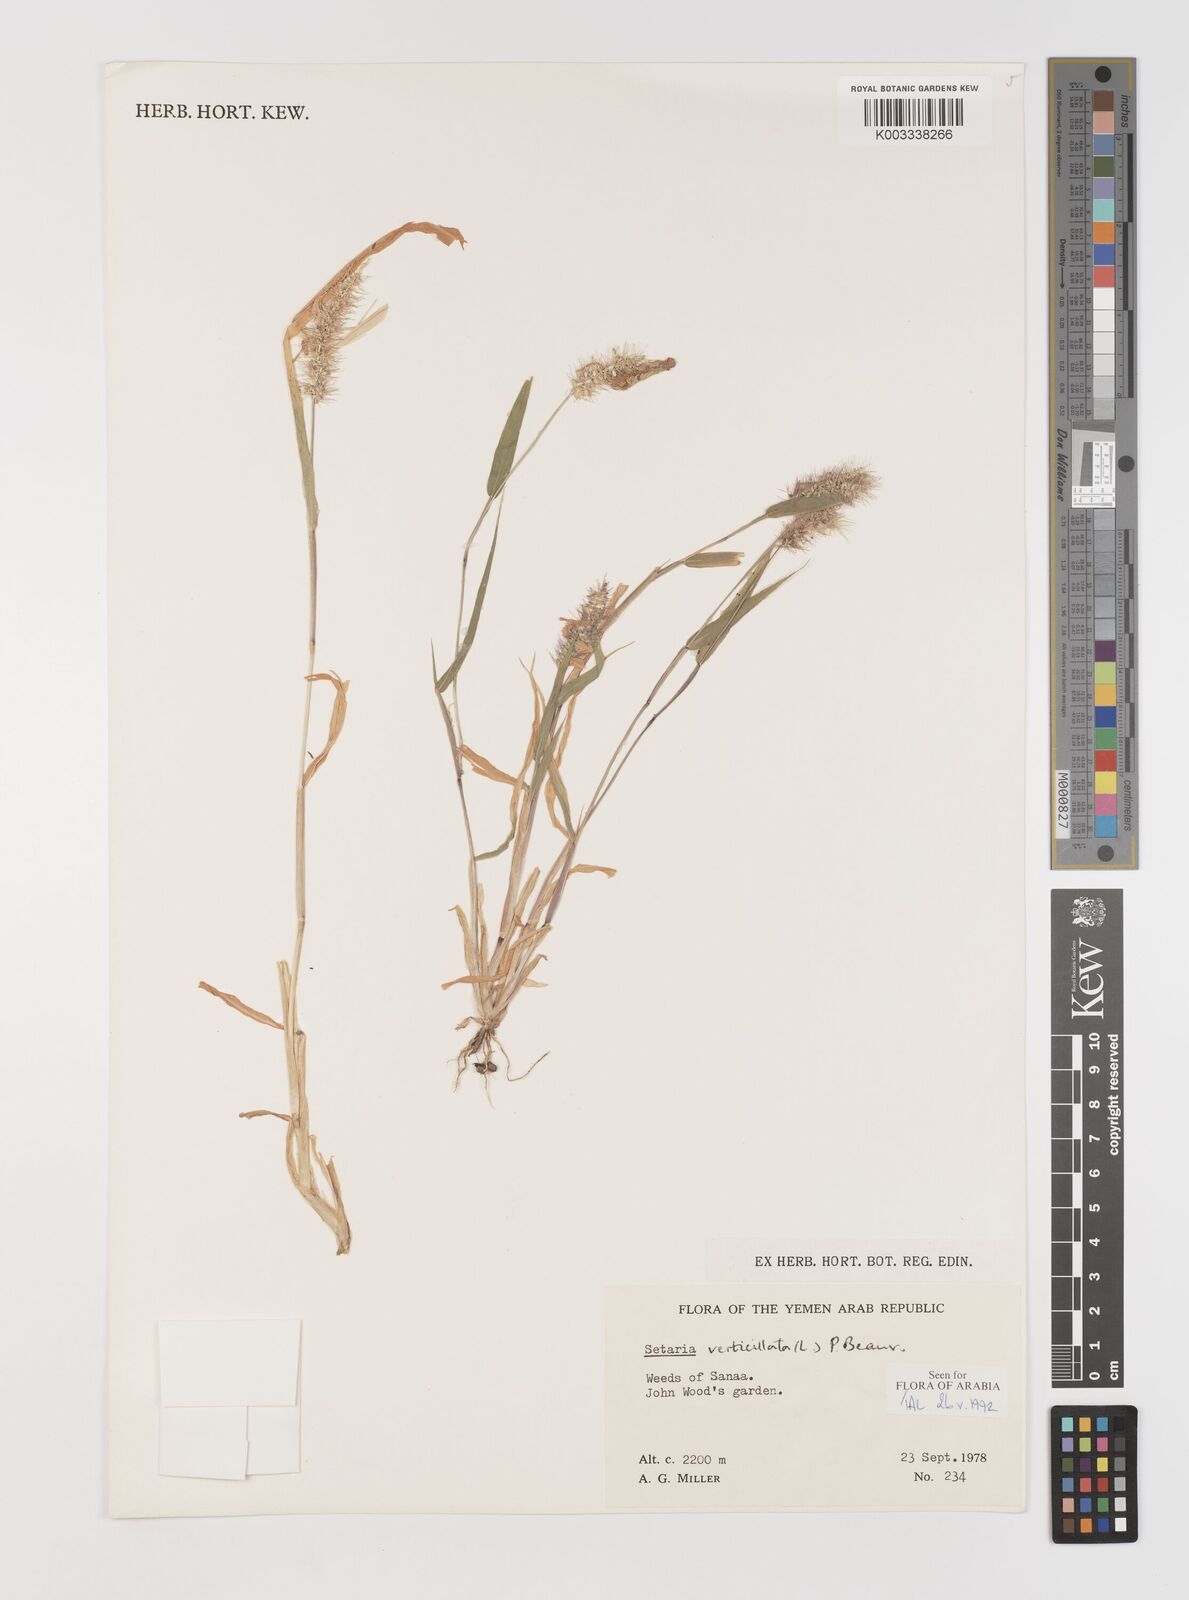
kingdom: Plantae
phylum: Tracheophyta
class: Liliopsida
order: Poales
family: Poaceae
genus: Setaria
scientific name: Setaria verticillata
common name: Hooked bristlegrass
